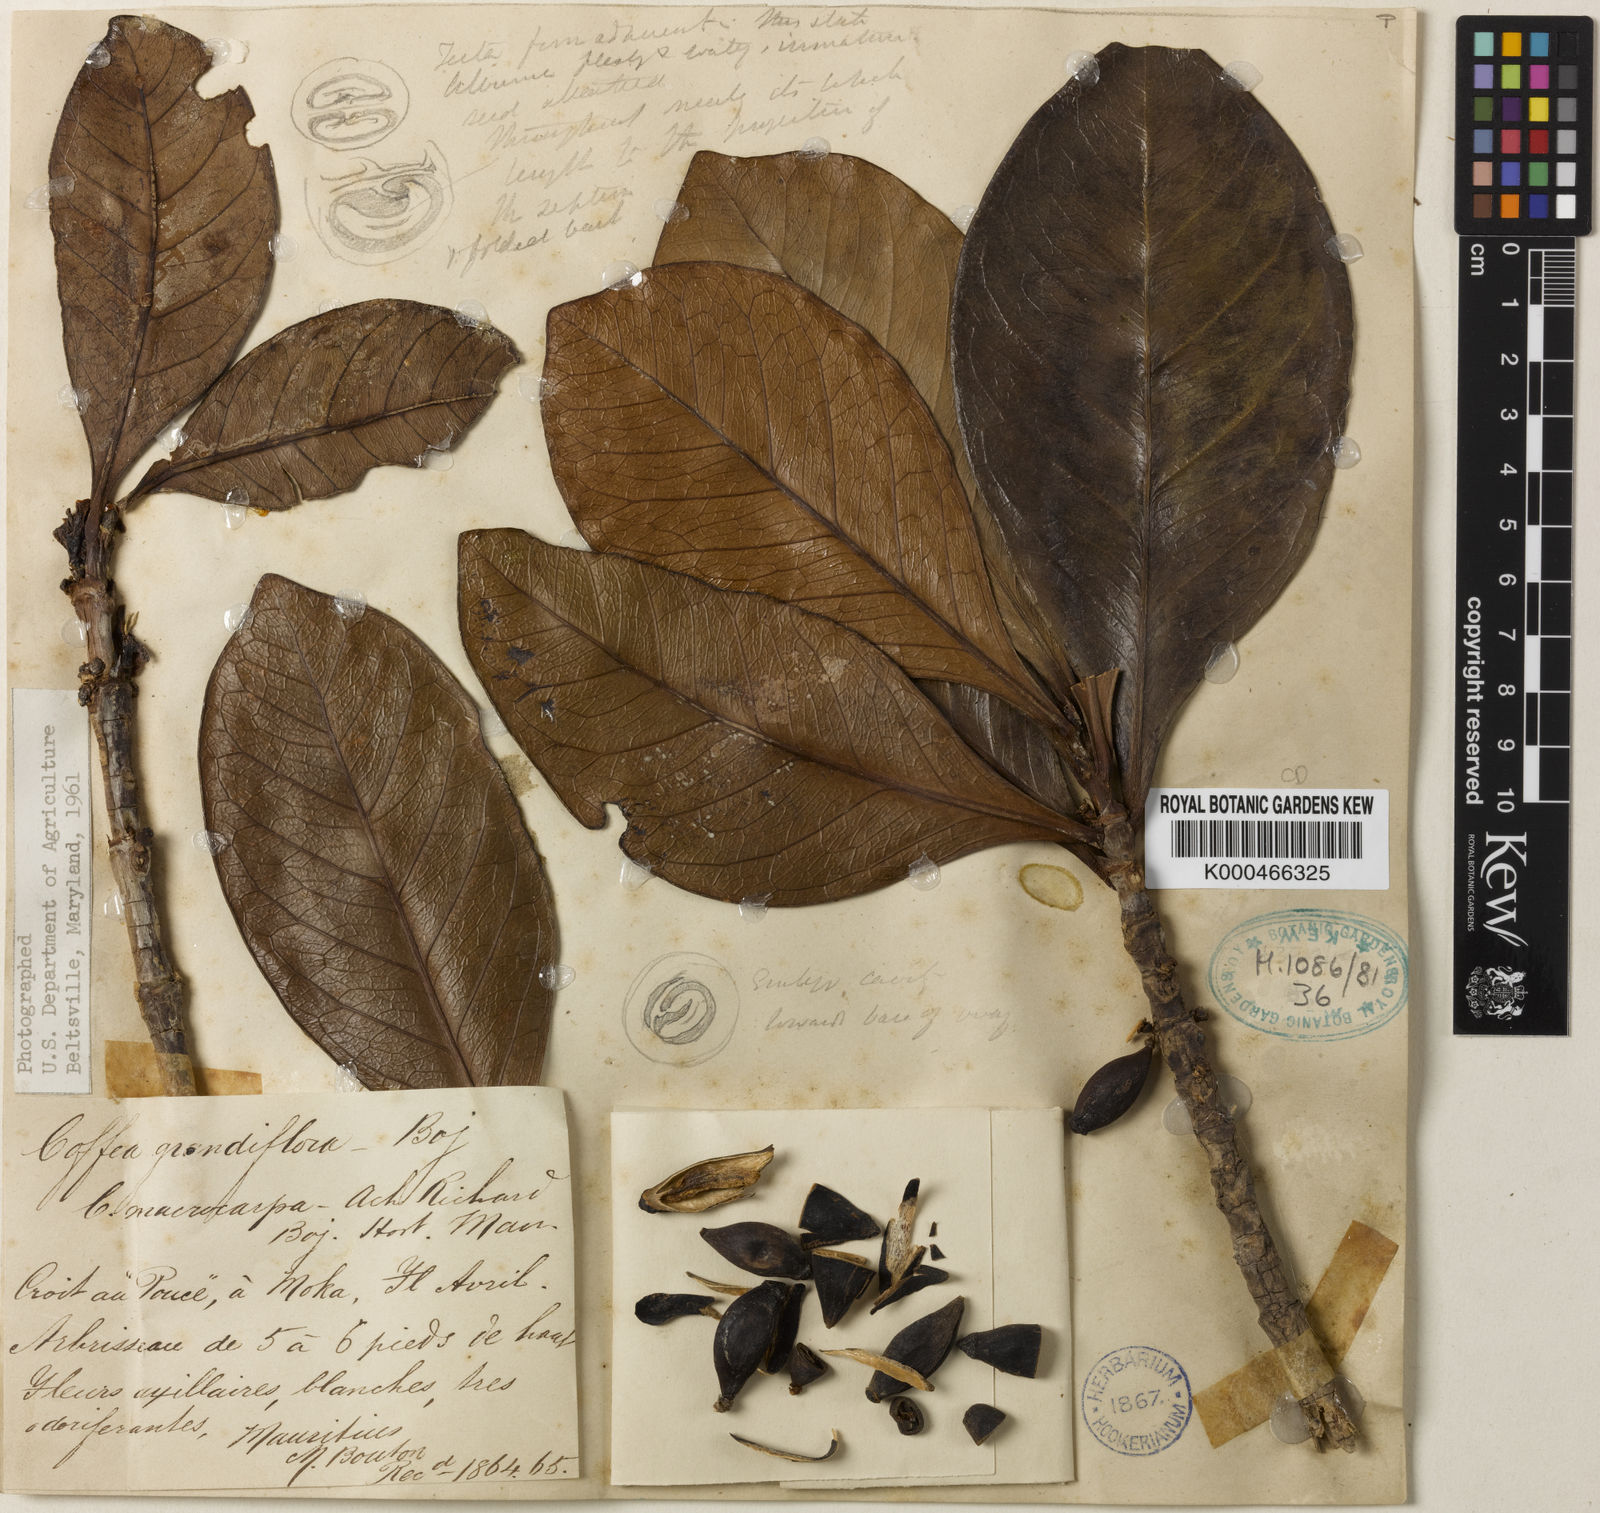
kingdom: Plantae
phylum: Tracheophyta
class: Magnoliopsida
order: Gentianales
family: Rubiaceae
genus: Coffea
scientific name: Coffea macrocarpa
